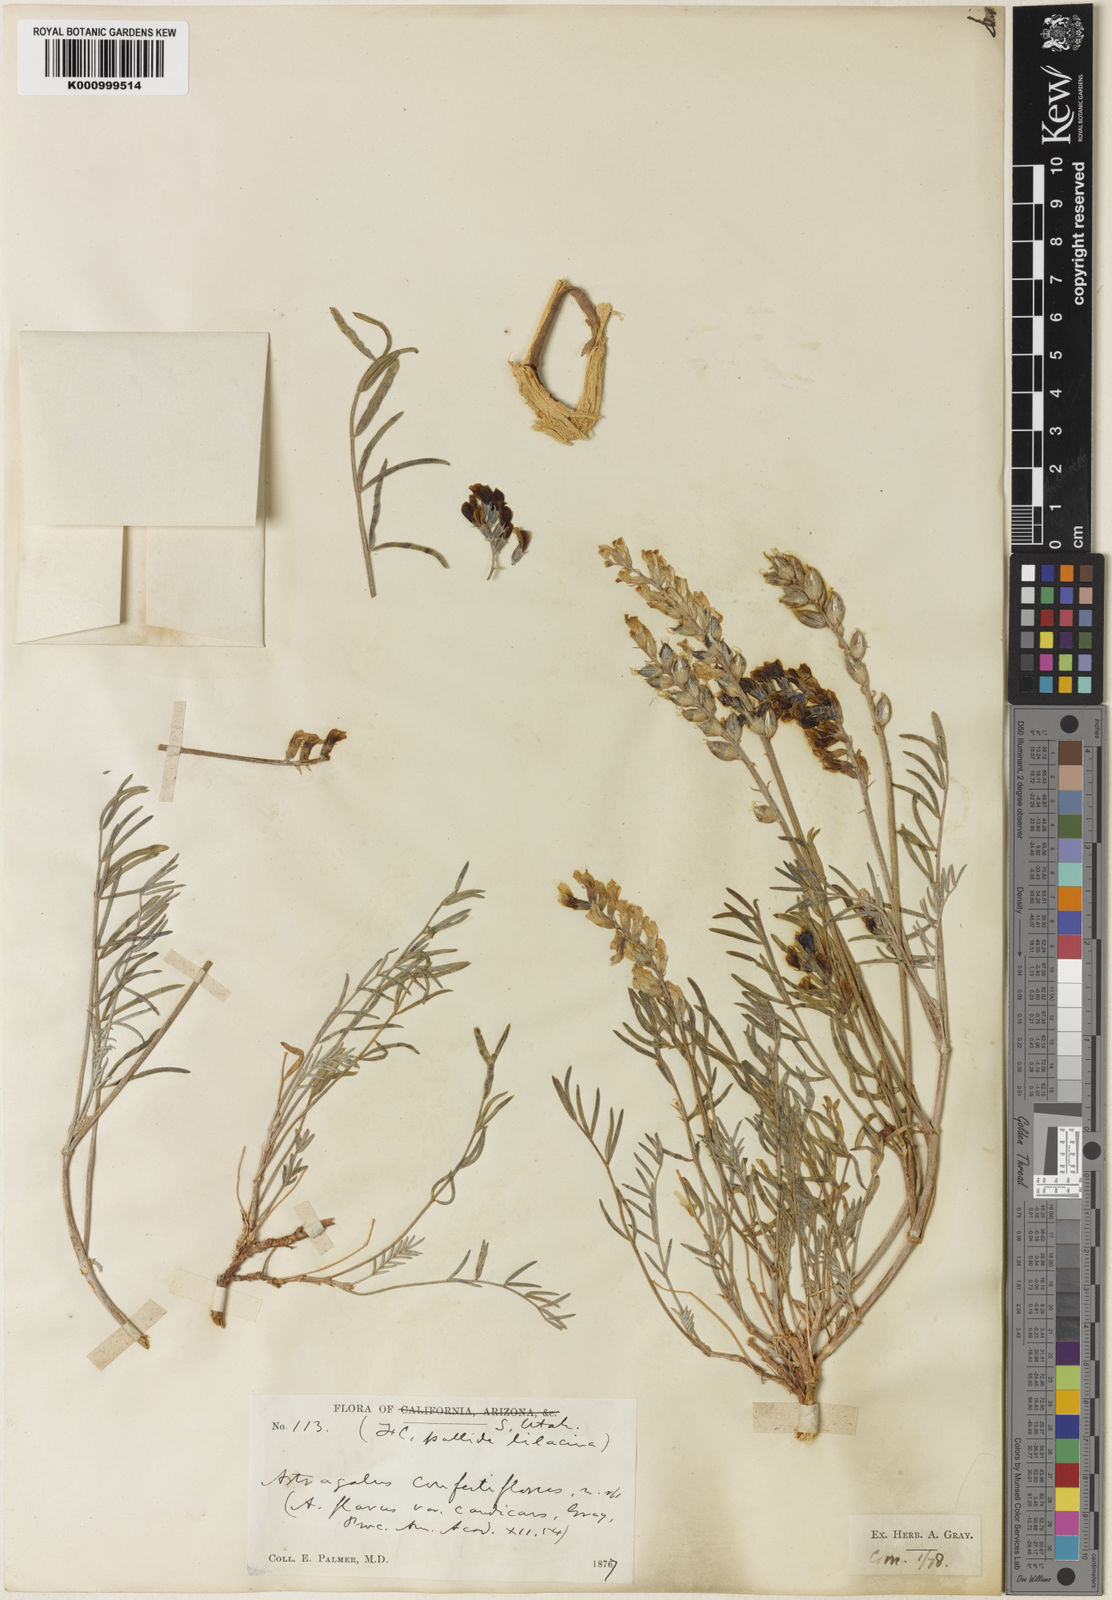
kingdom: Plantae
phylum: Tracheophyta
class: Magnoliopsida
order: Fabales
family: Fabaceae
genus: Astragalus
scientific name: Astragalus flavus
